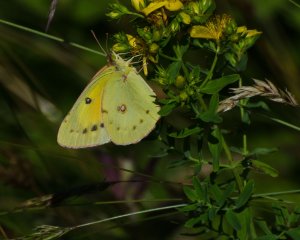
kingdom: Animalia
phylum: Arthropoda
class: Insecta
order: Lepidoptera
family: Pieridae
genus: Colias
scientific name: Colias eurytheme
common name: Orange Sulphur
